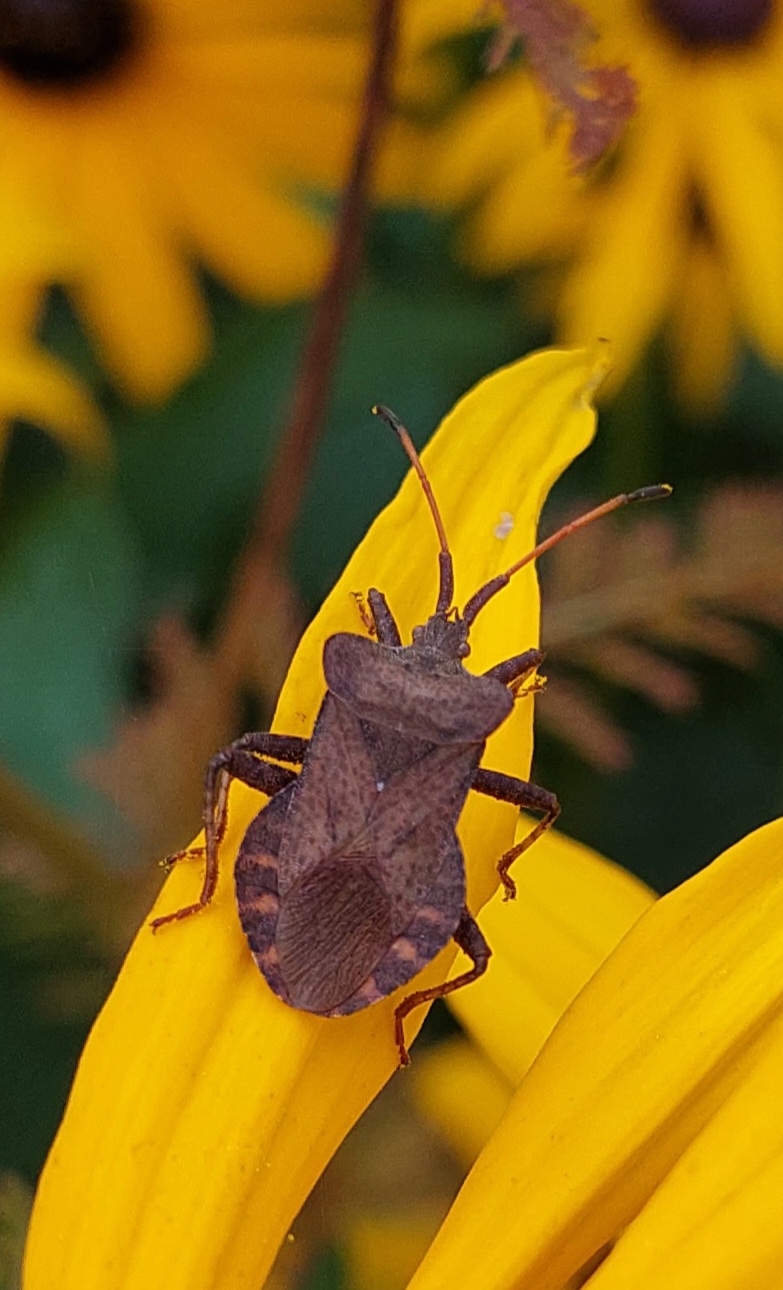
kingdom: Animalia
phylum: Arthropoda
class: Insecta
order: Hemiptera
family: Coreidae
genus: Coreus
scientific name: Coreus marginatus
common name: Skræppetæge
